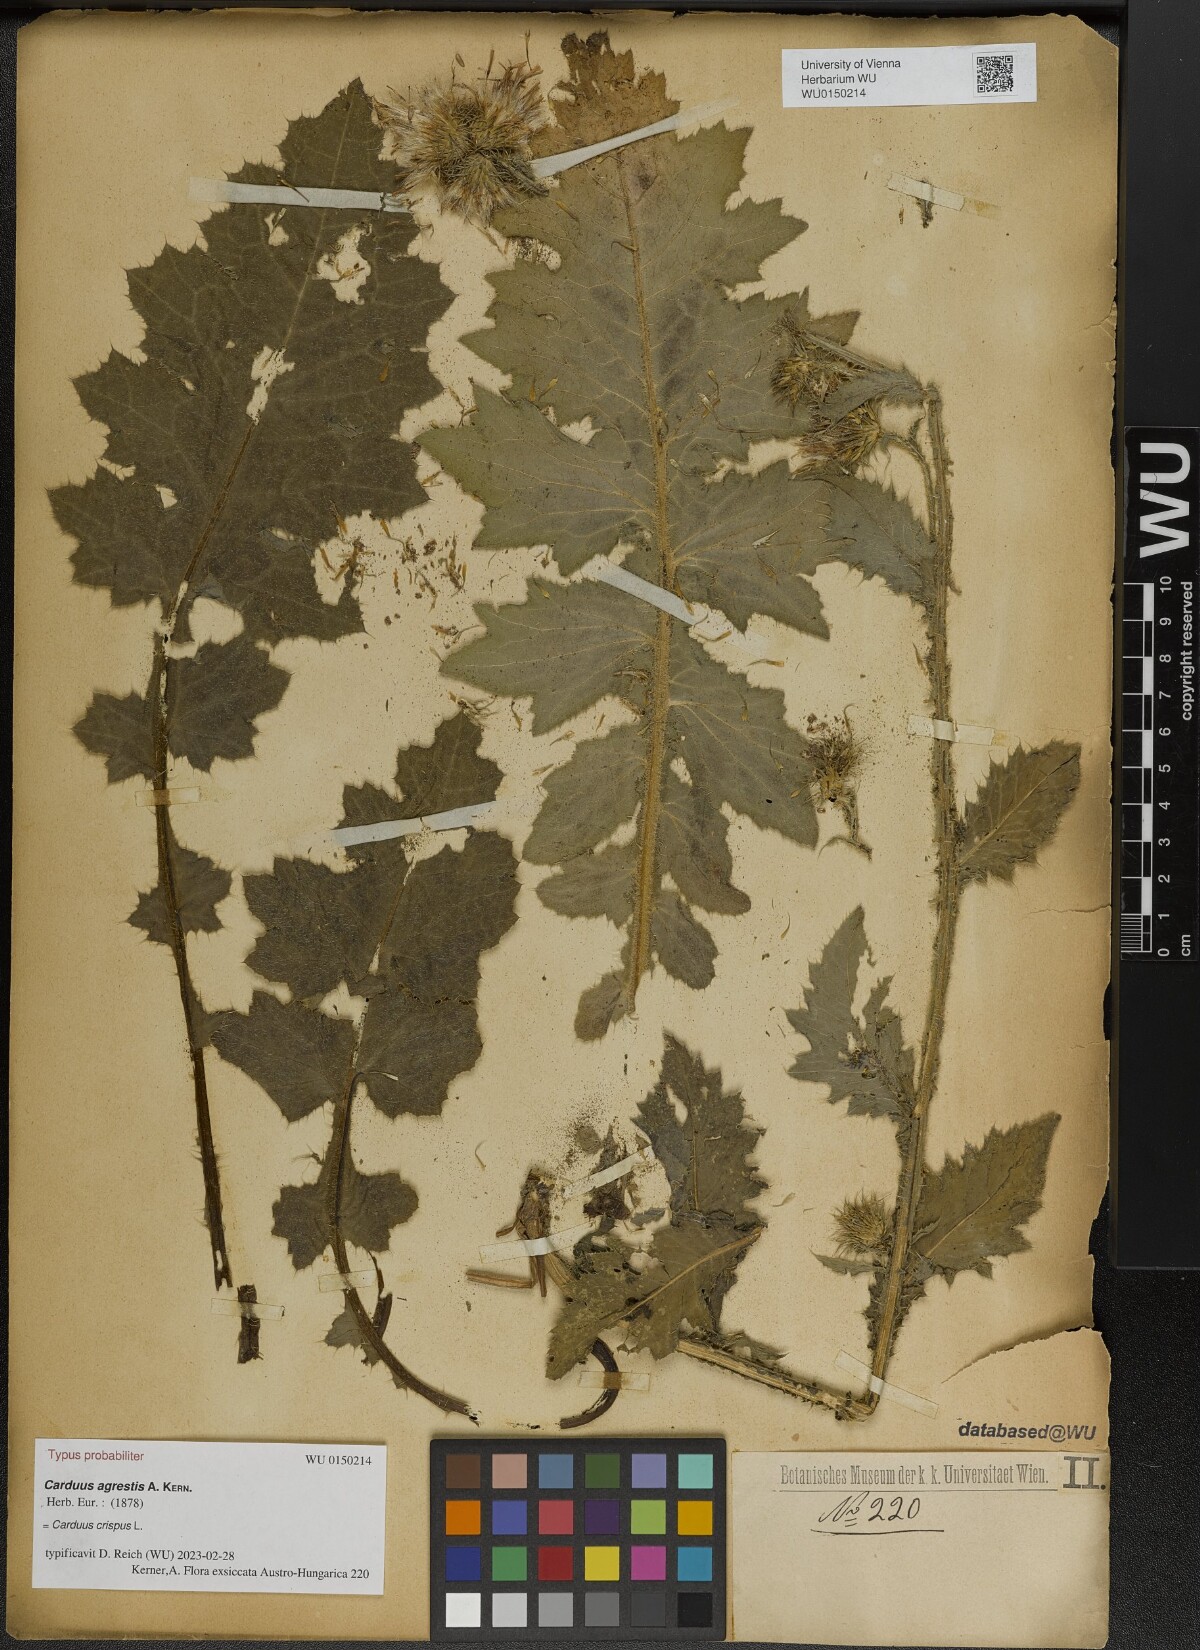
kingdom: Plantae
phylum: Tracheophyta
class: Magnoliopsida
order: Asterales
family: Asteraceae
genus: Carduus
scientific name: Carduus crispus
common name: Welted thistle
